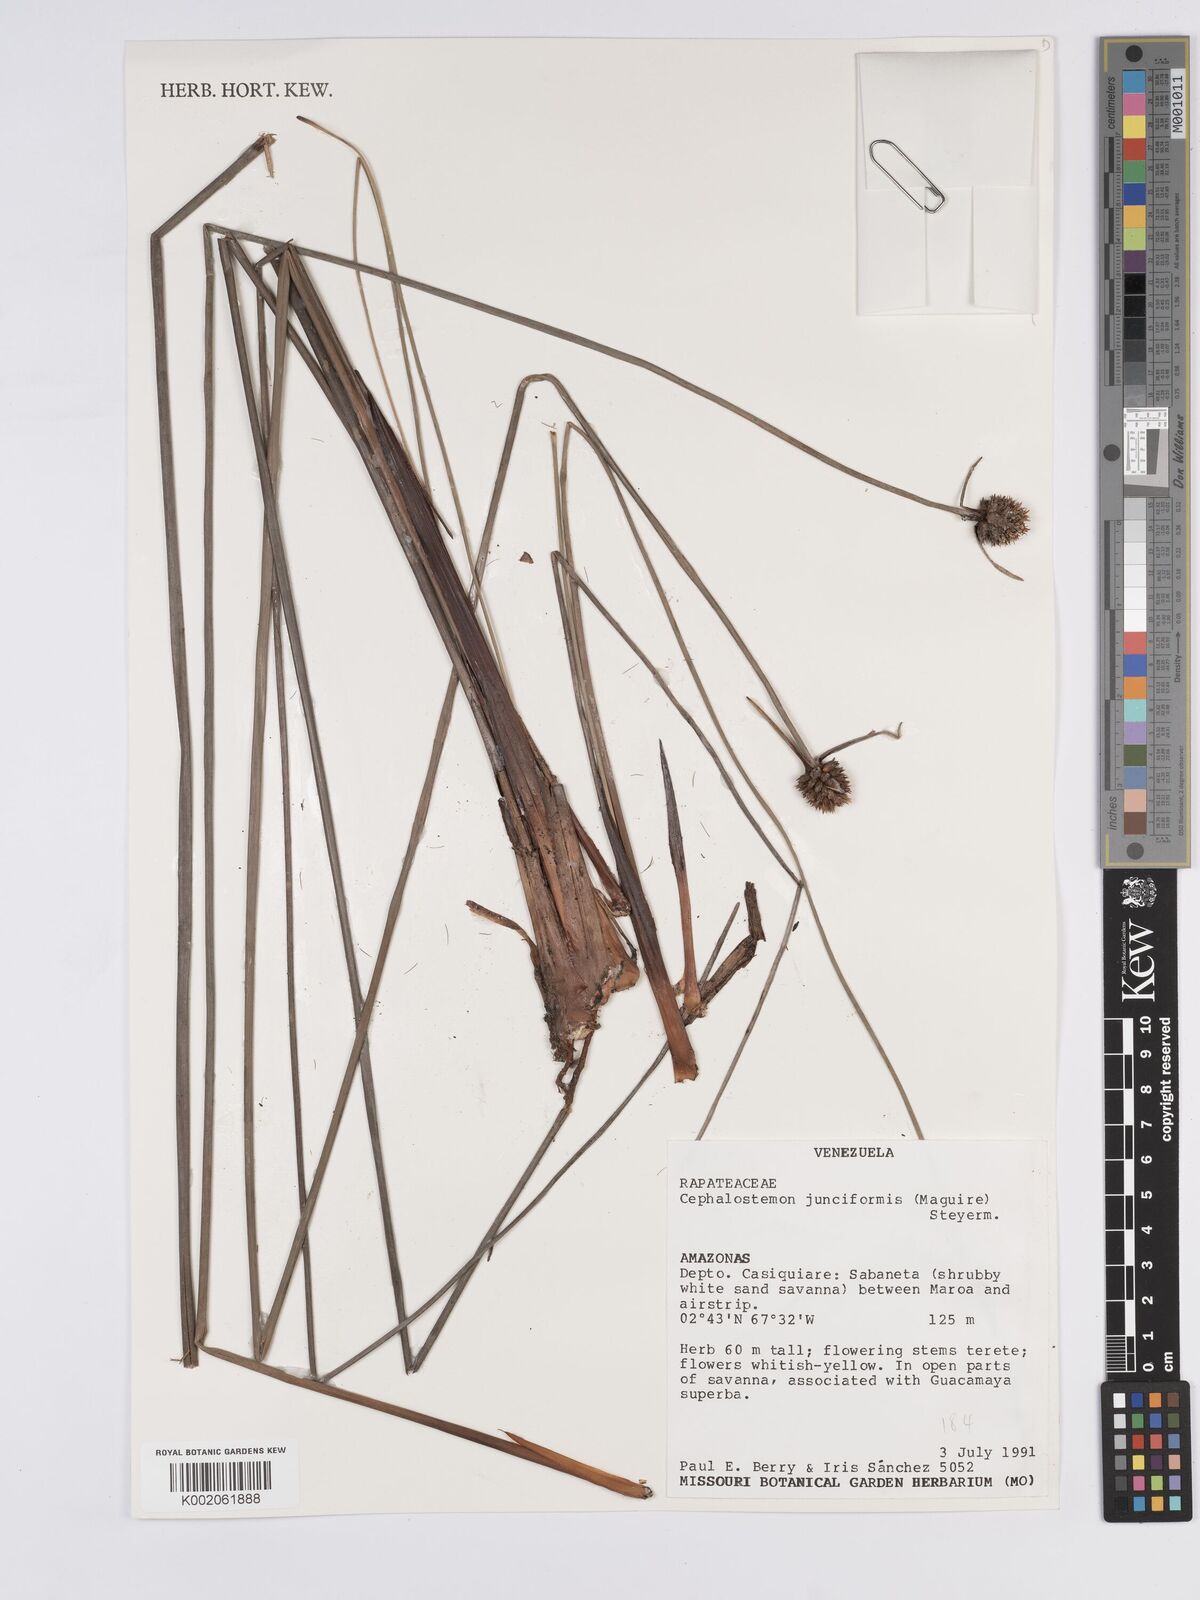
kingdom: Plantae
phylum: Tracheophyta
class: Liliopsida
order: Poales
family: Rapateaceae
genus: Duckea
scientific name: Duckea junciformis
